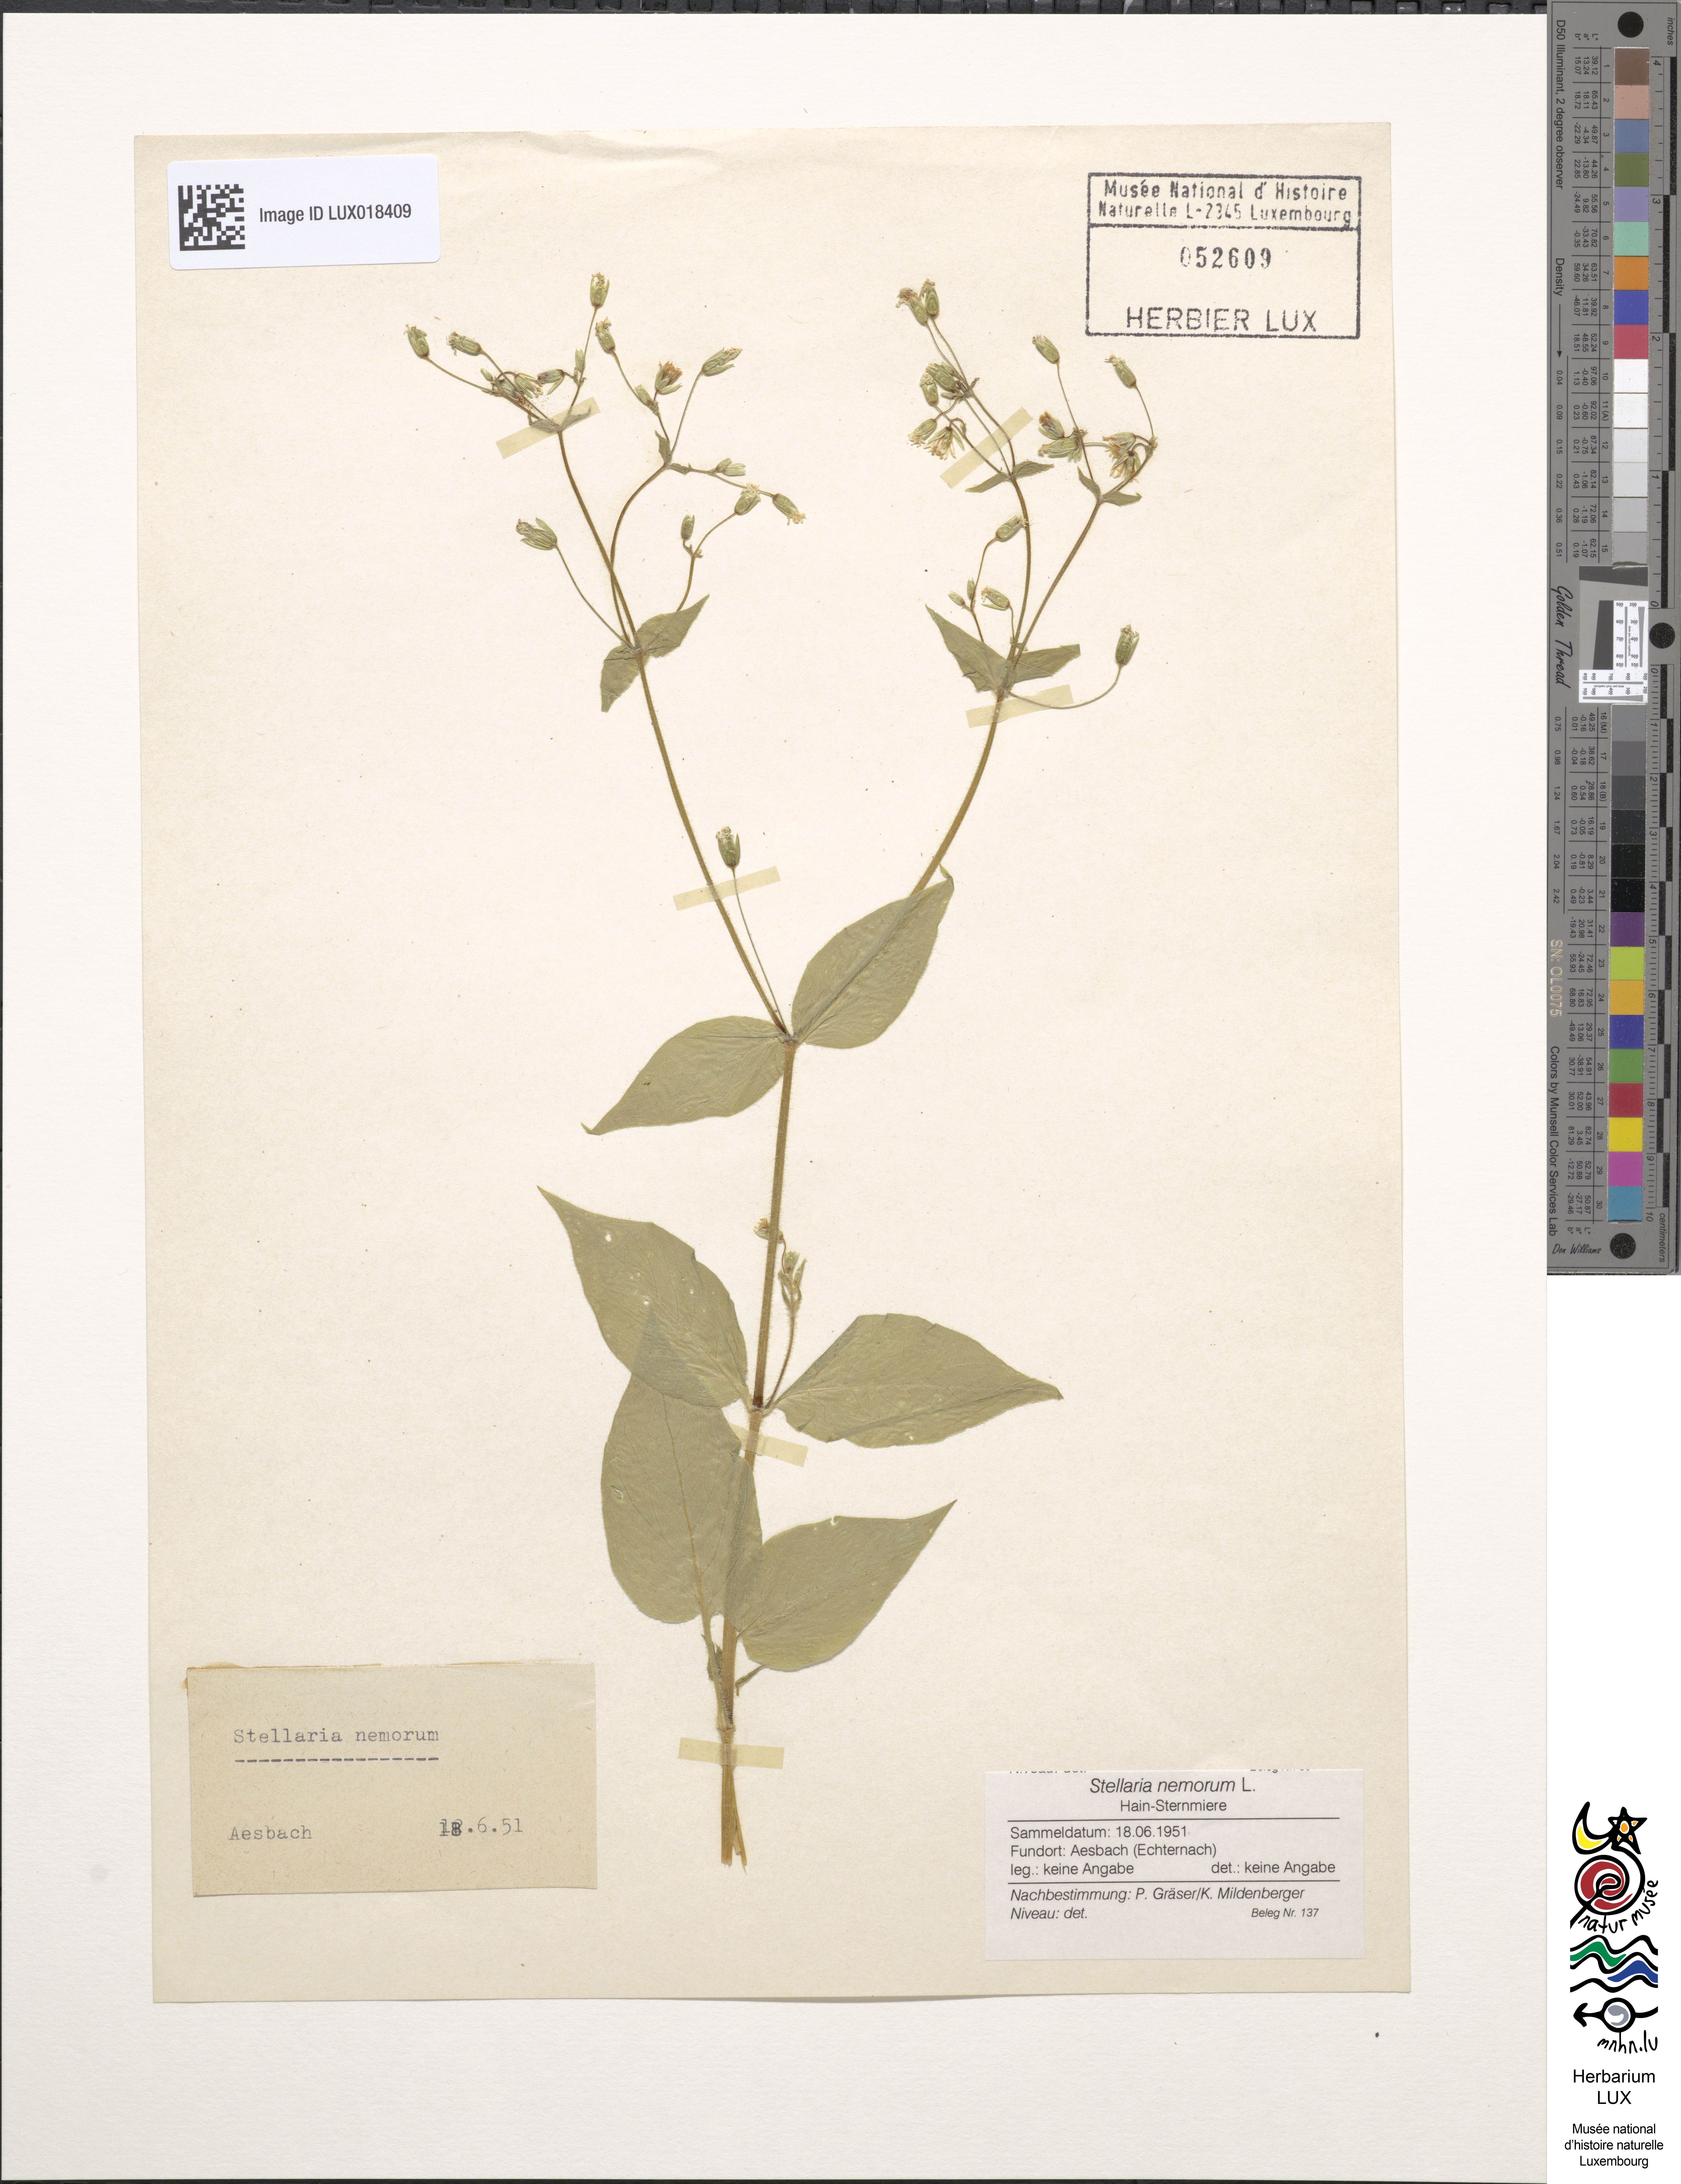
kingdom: Plantae
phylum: Tracheophyta
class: Magnoliopsida
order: Caryophyllales
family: Caryophyllaceae
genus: Stellaria
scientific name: Stellaria nemorum
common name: Wood stitchwort
